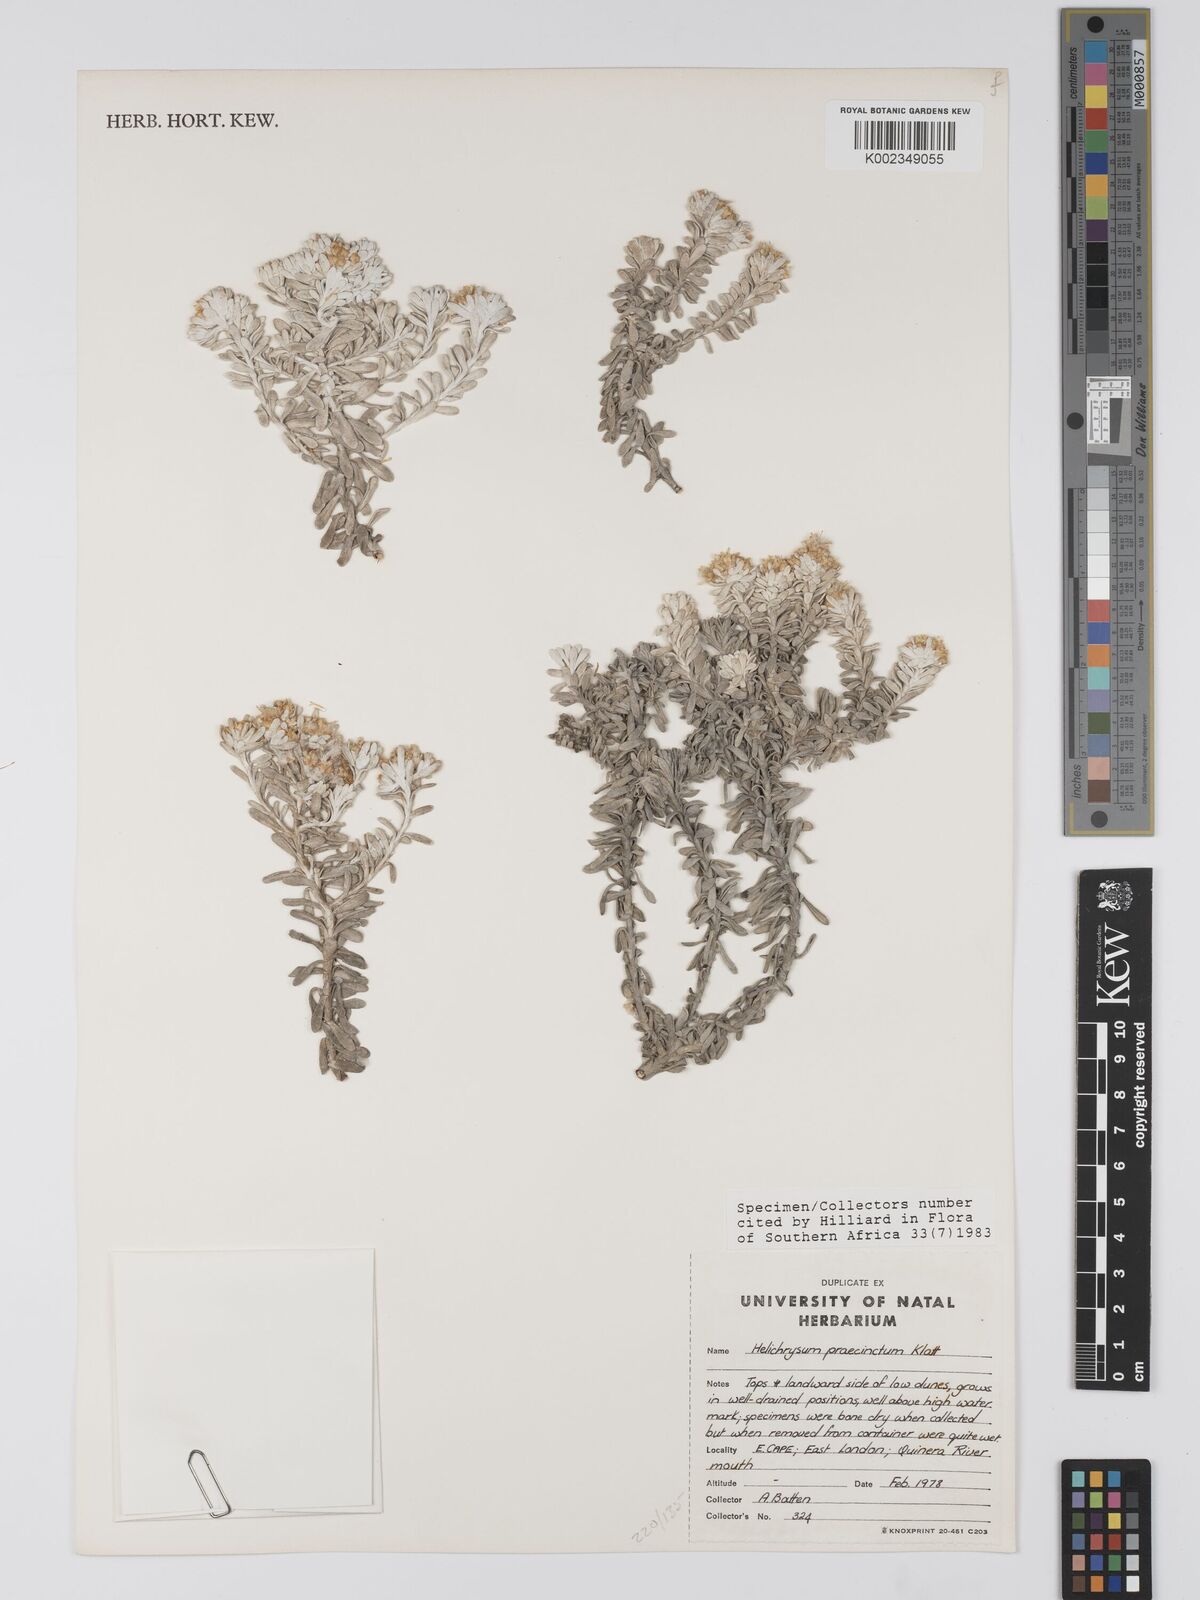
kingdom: Plantae
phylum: Tracheophyta
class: Magnoliopsida
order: Asterales
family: Asteraceae
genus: Helichrysum
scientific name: Helichrysum praecinctum
